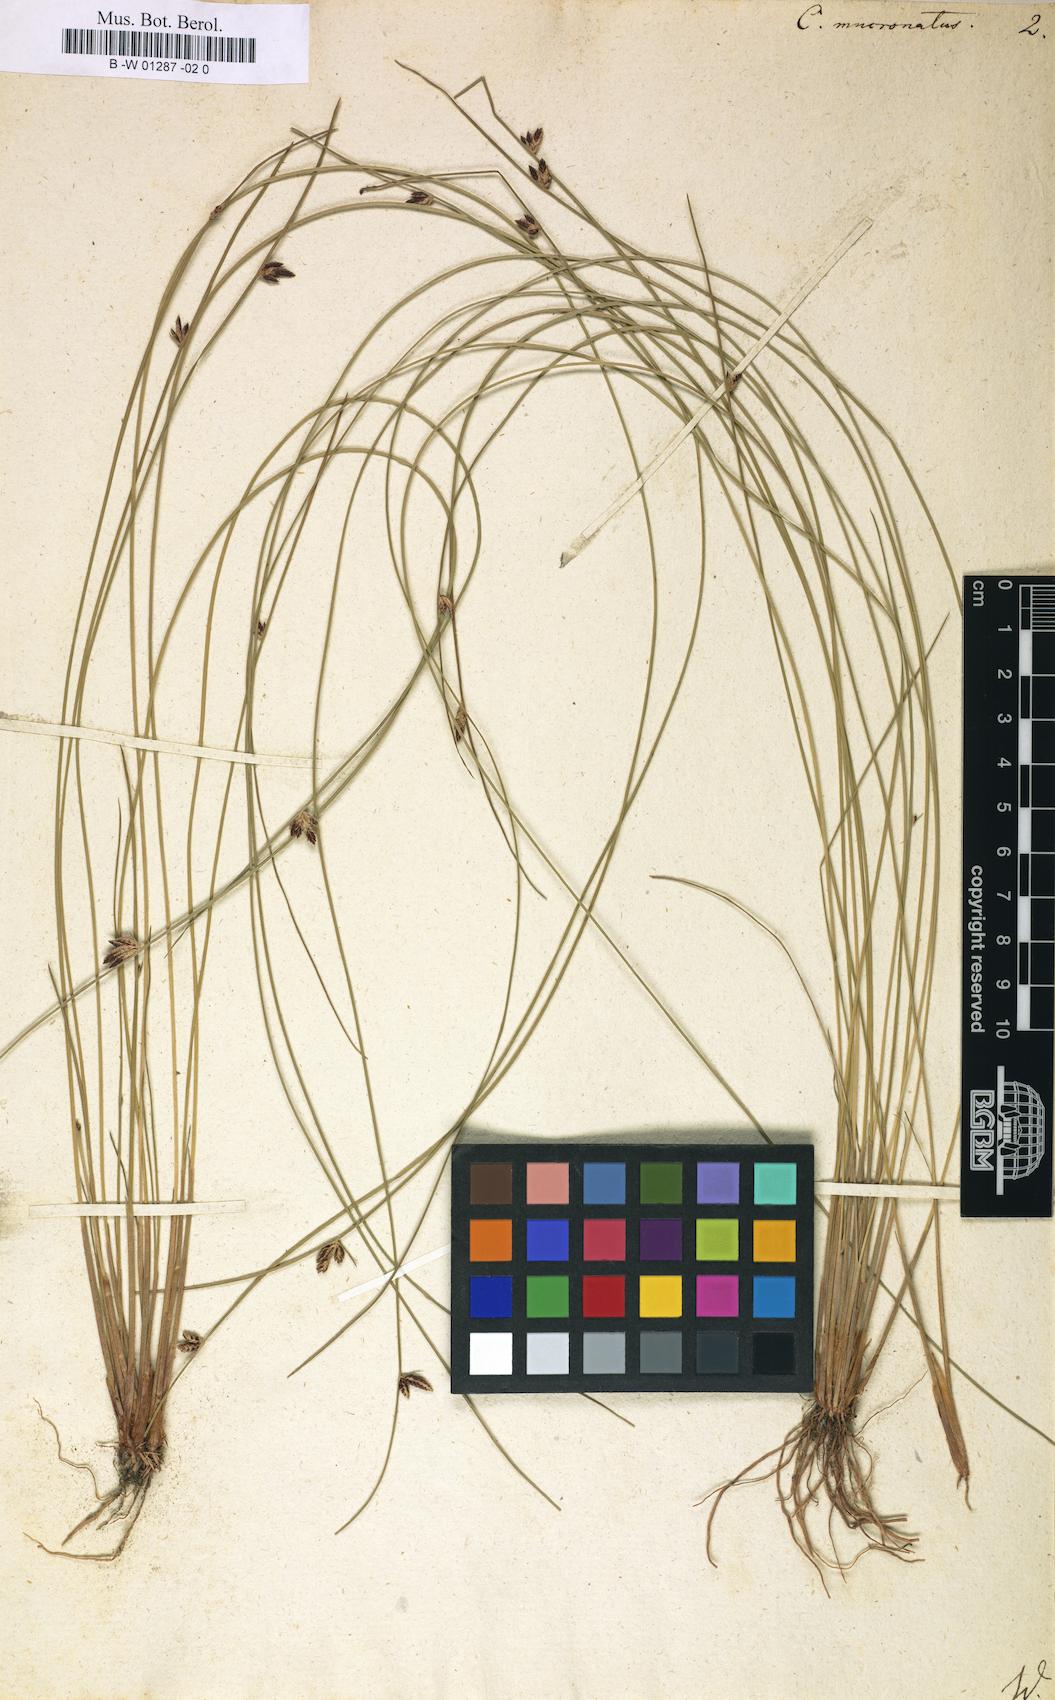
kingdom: Plantae
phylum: Tracheophyta
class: Liliopsida
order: Poales
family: Cyperaceae
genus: Cyperus
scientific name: Cyperus laevigatus
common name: Smooth flat sedge
